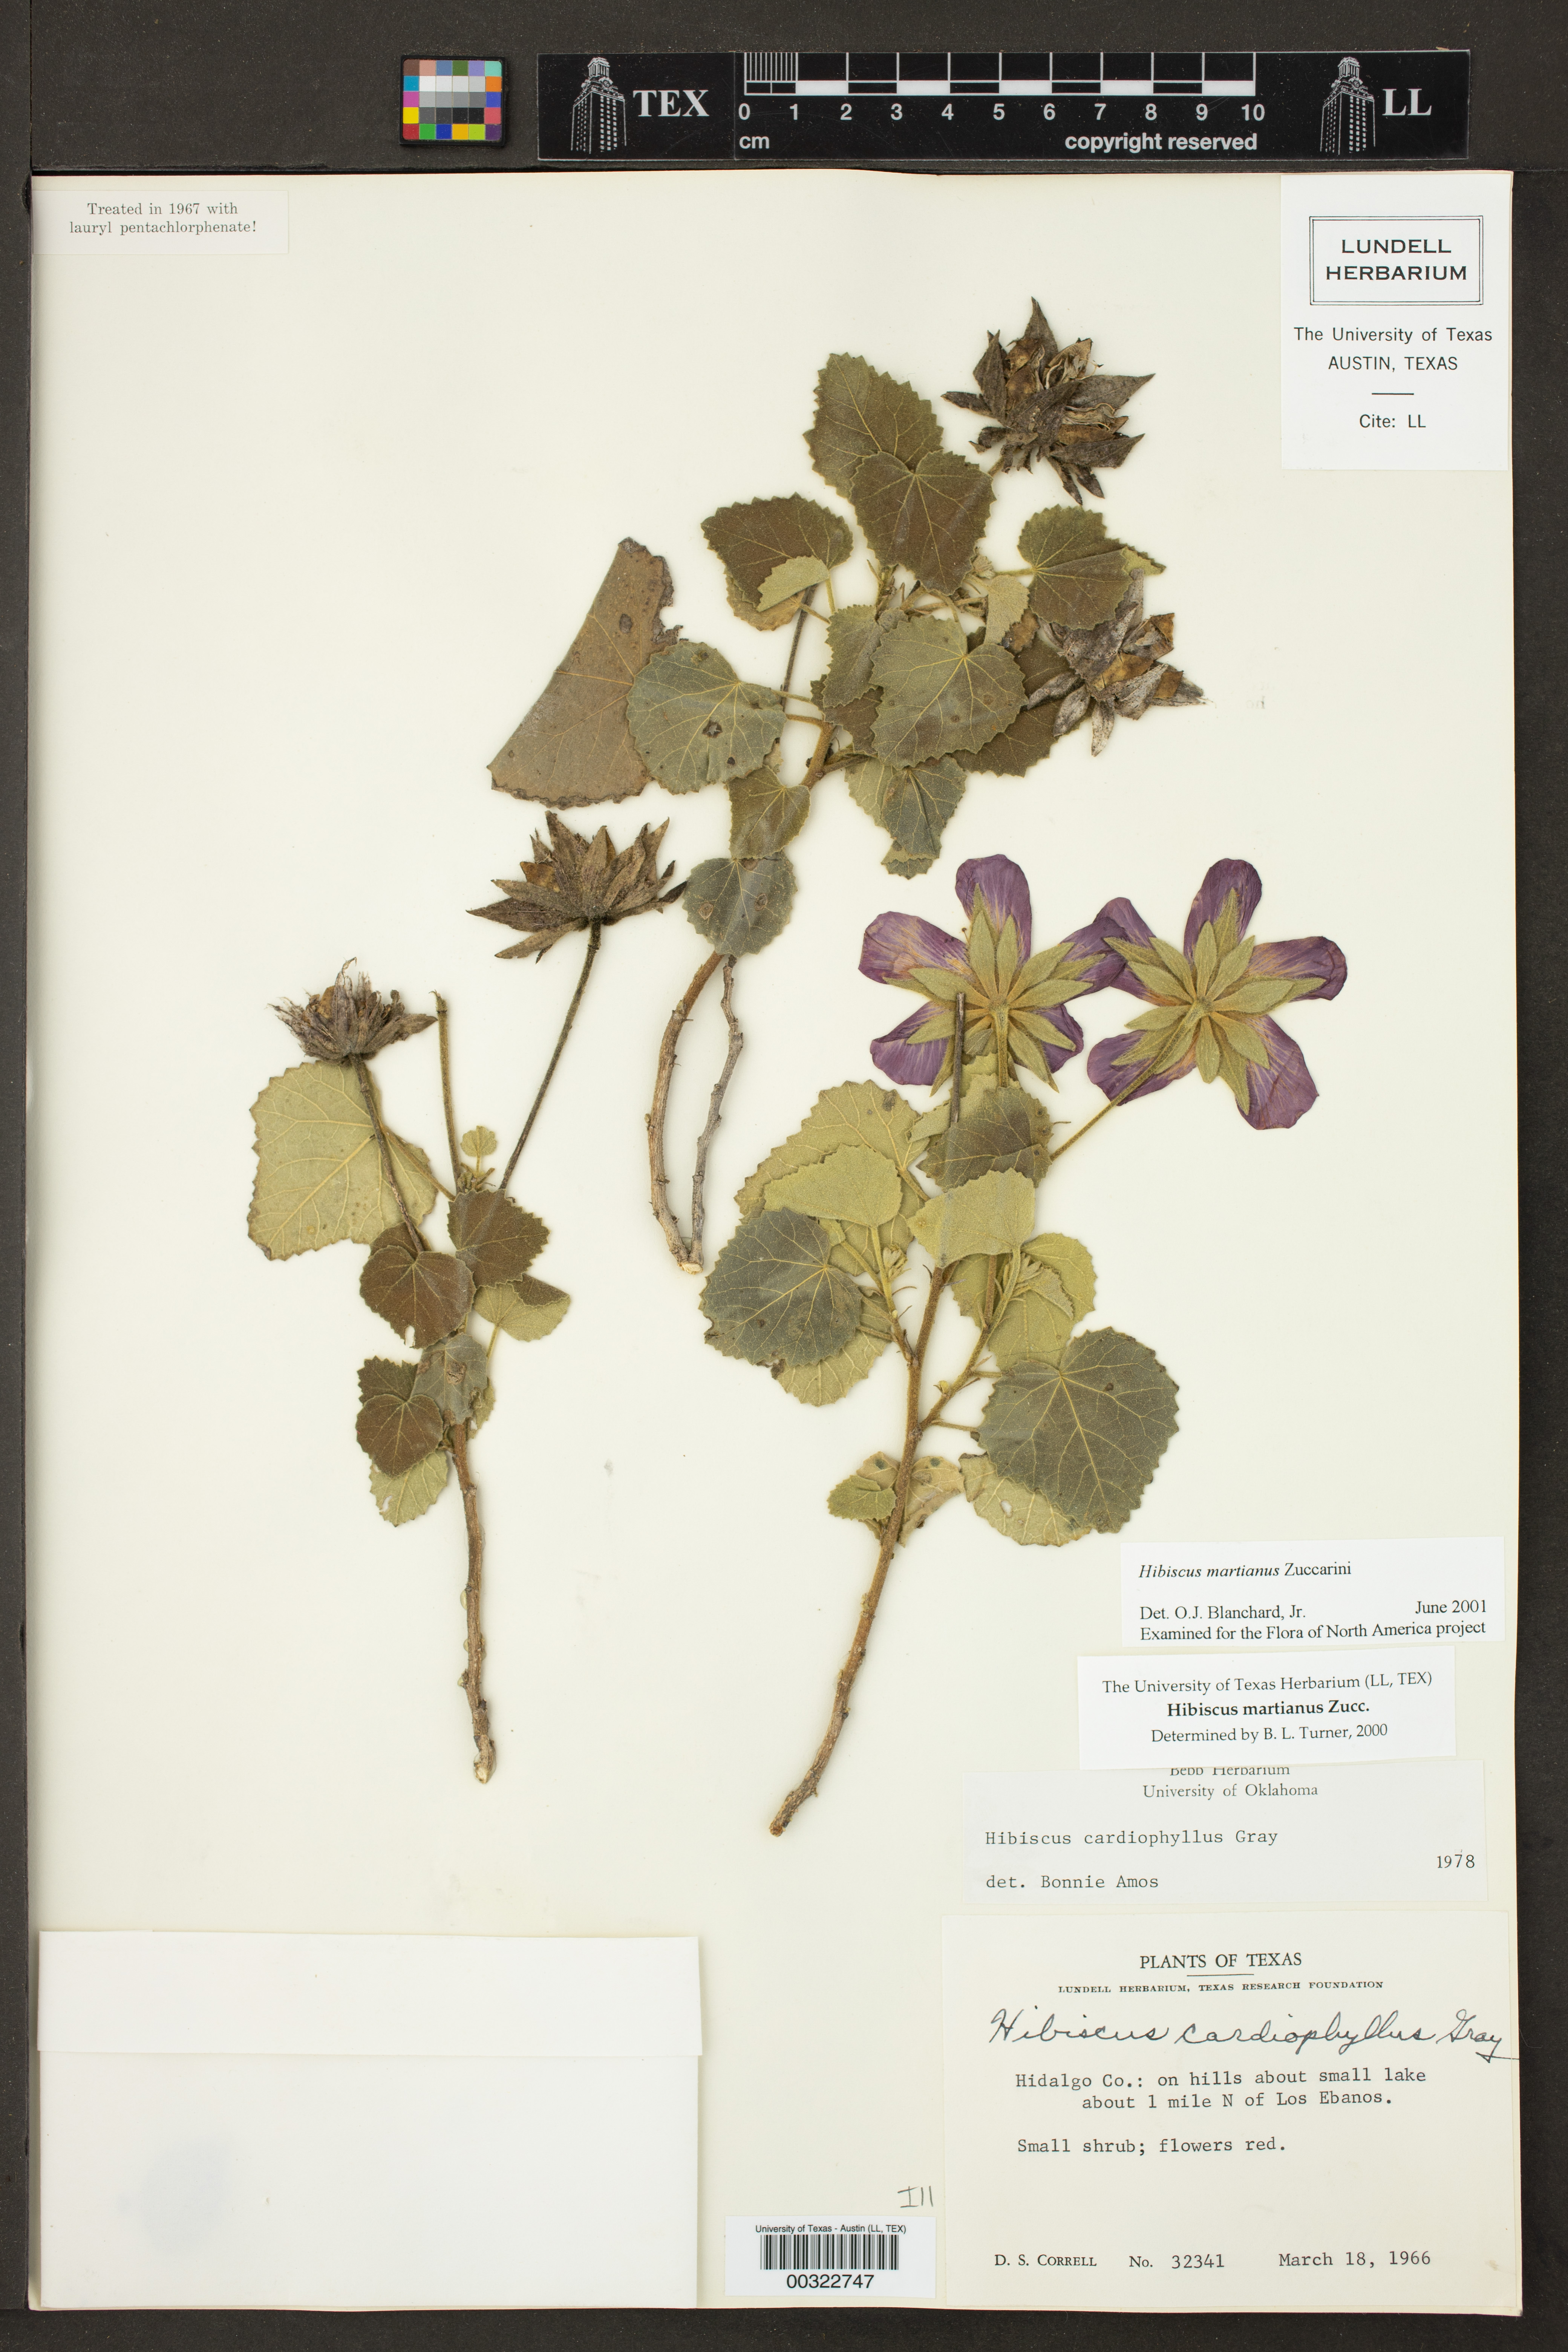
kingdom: Plantae
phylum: Tracheophyta
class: Magnoliopsida
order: Malvales
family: Malvaceae
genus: Hibiscus
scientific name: Hibiscus martianus
